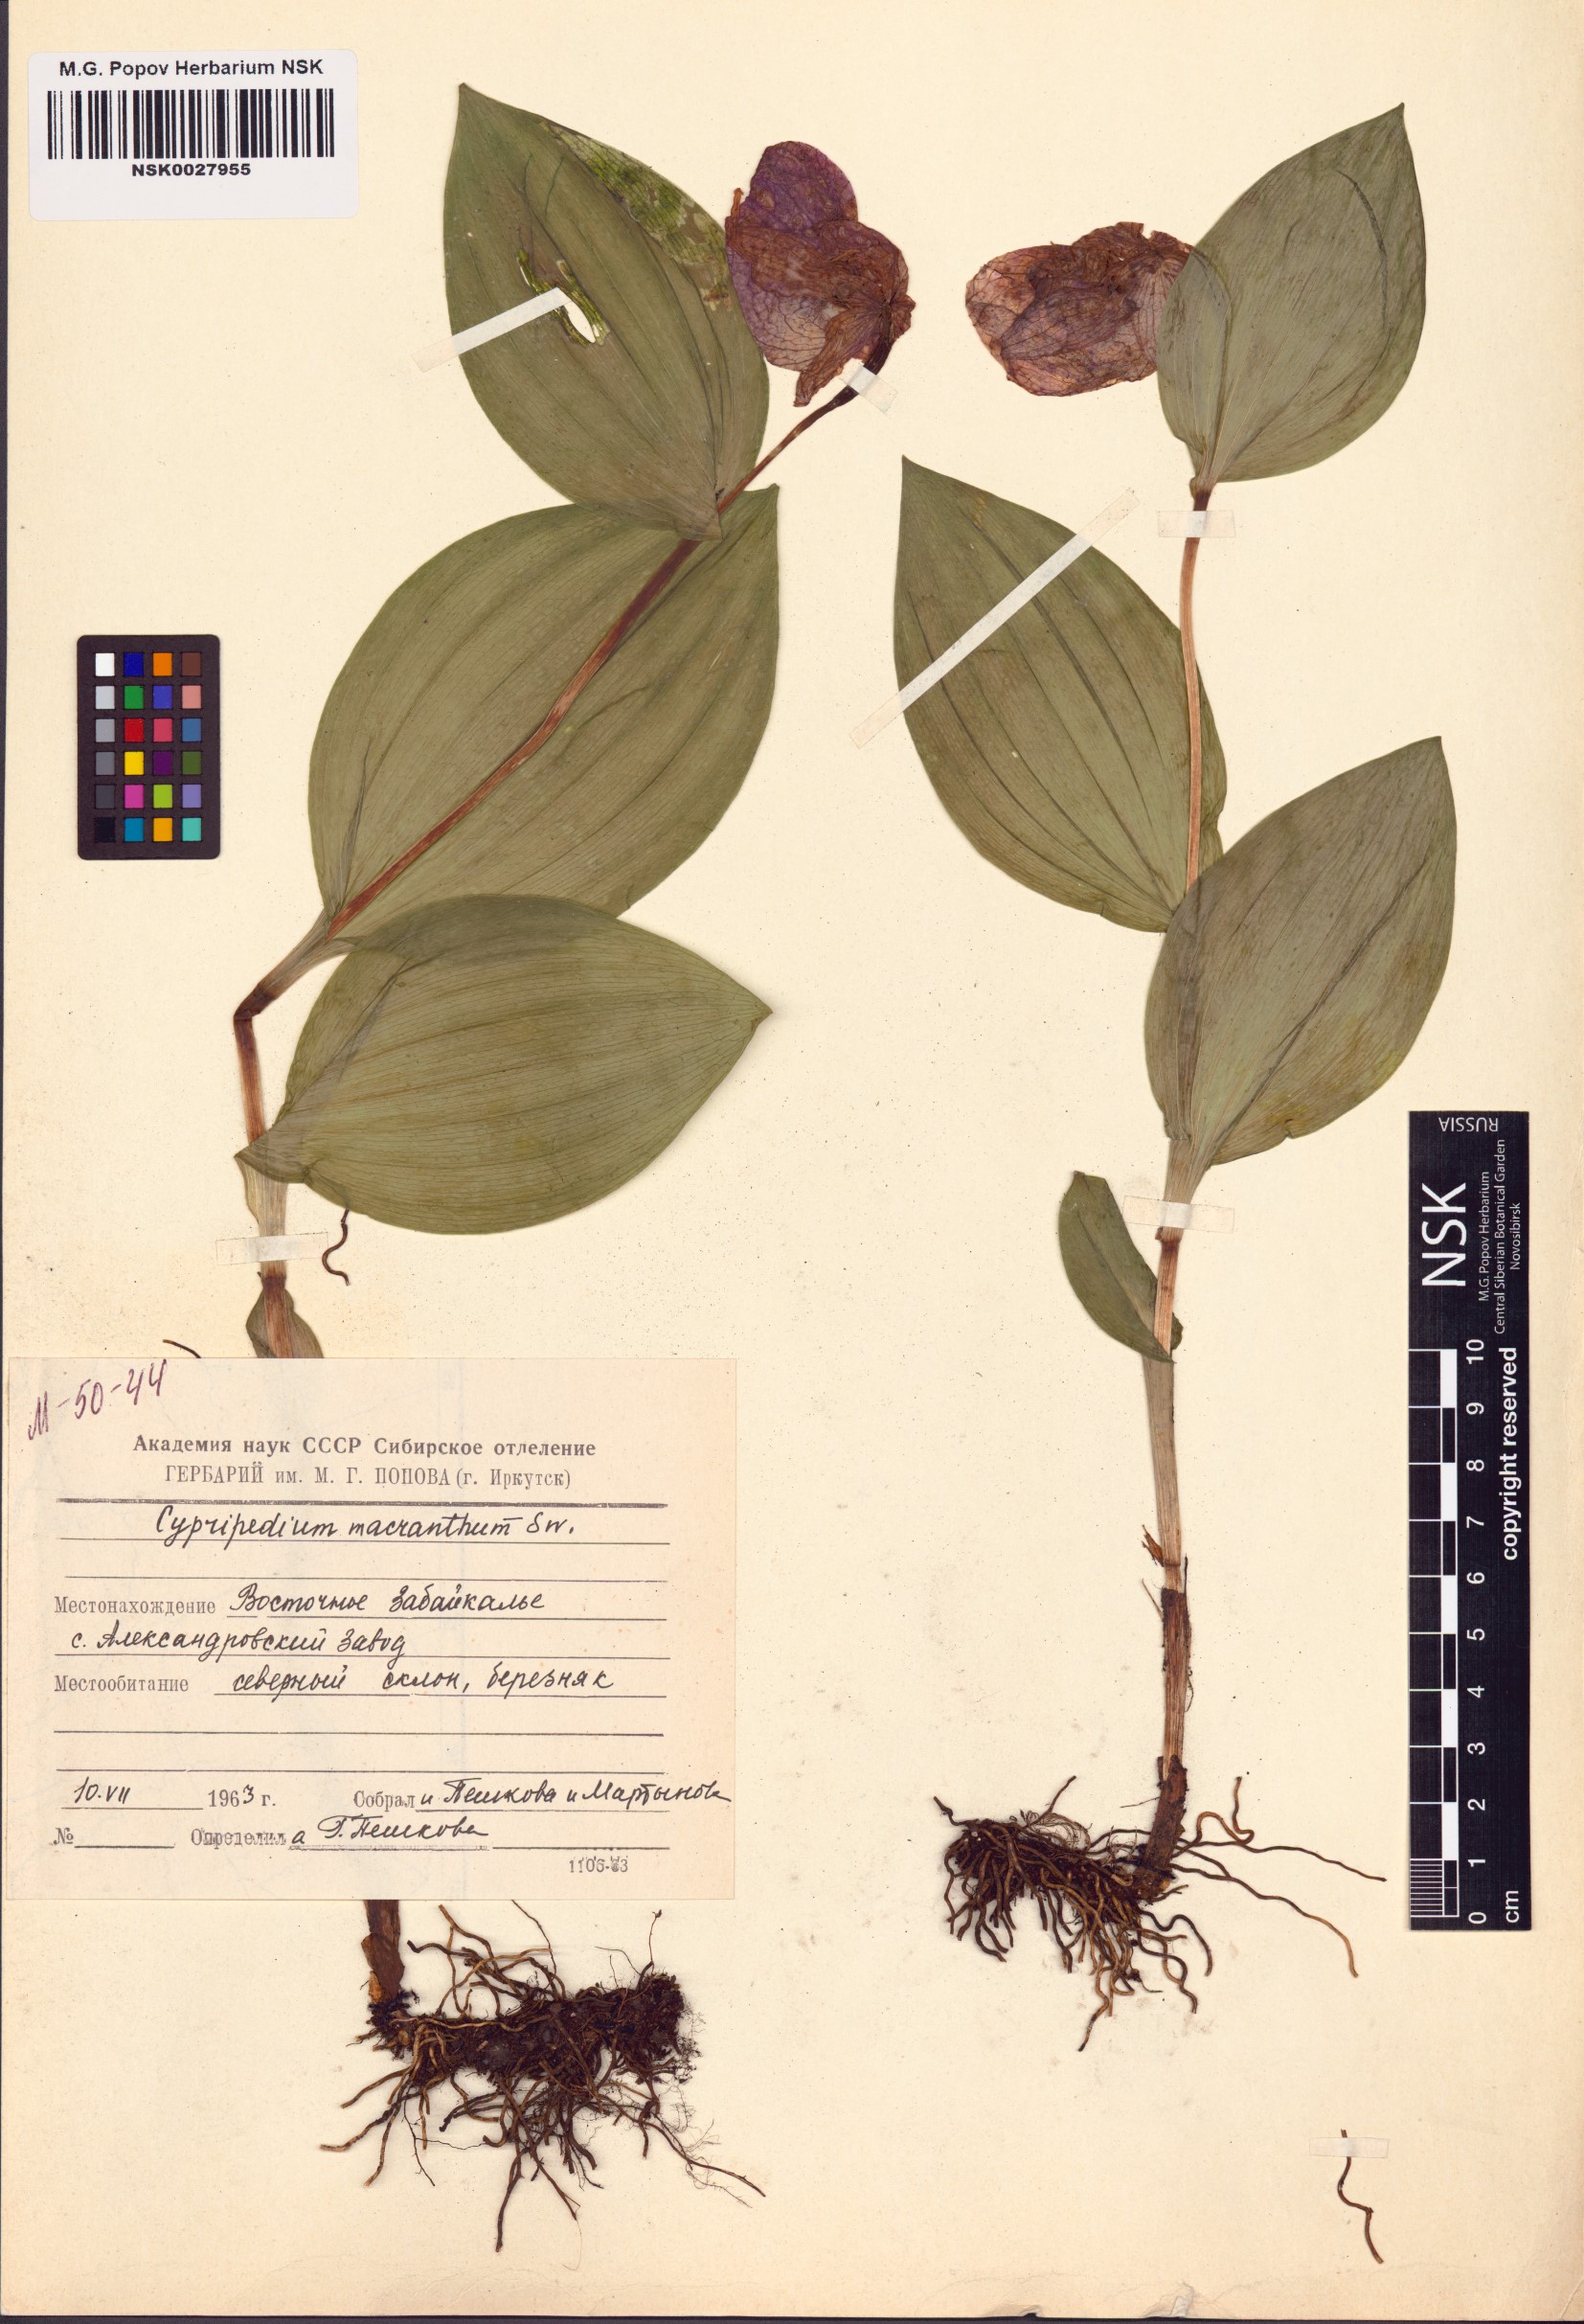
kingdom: Plantae
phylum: Tracheophyta
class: Liliopsida
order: Asparagales
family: Orchidaceae
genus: Cypripedium
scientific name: Cypripedium macranthos
